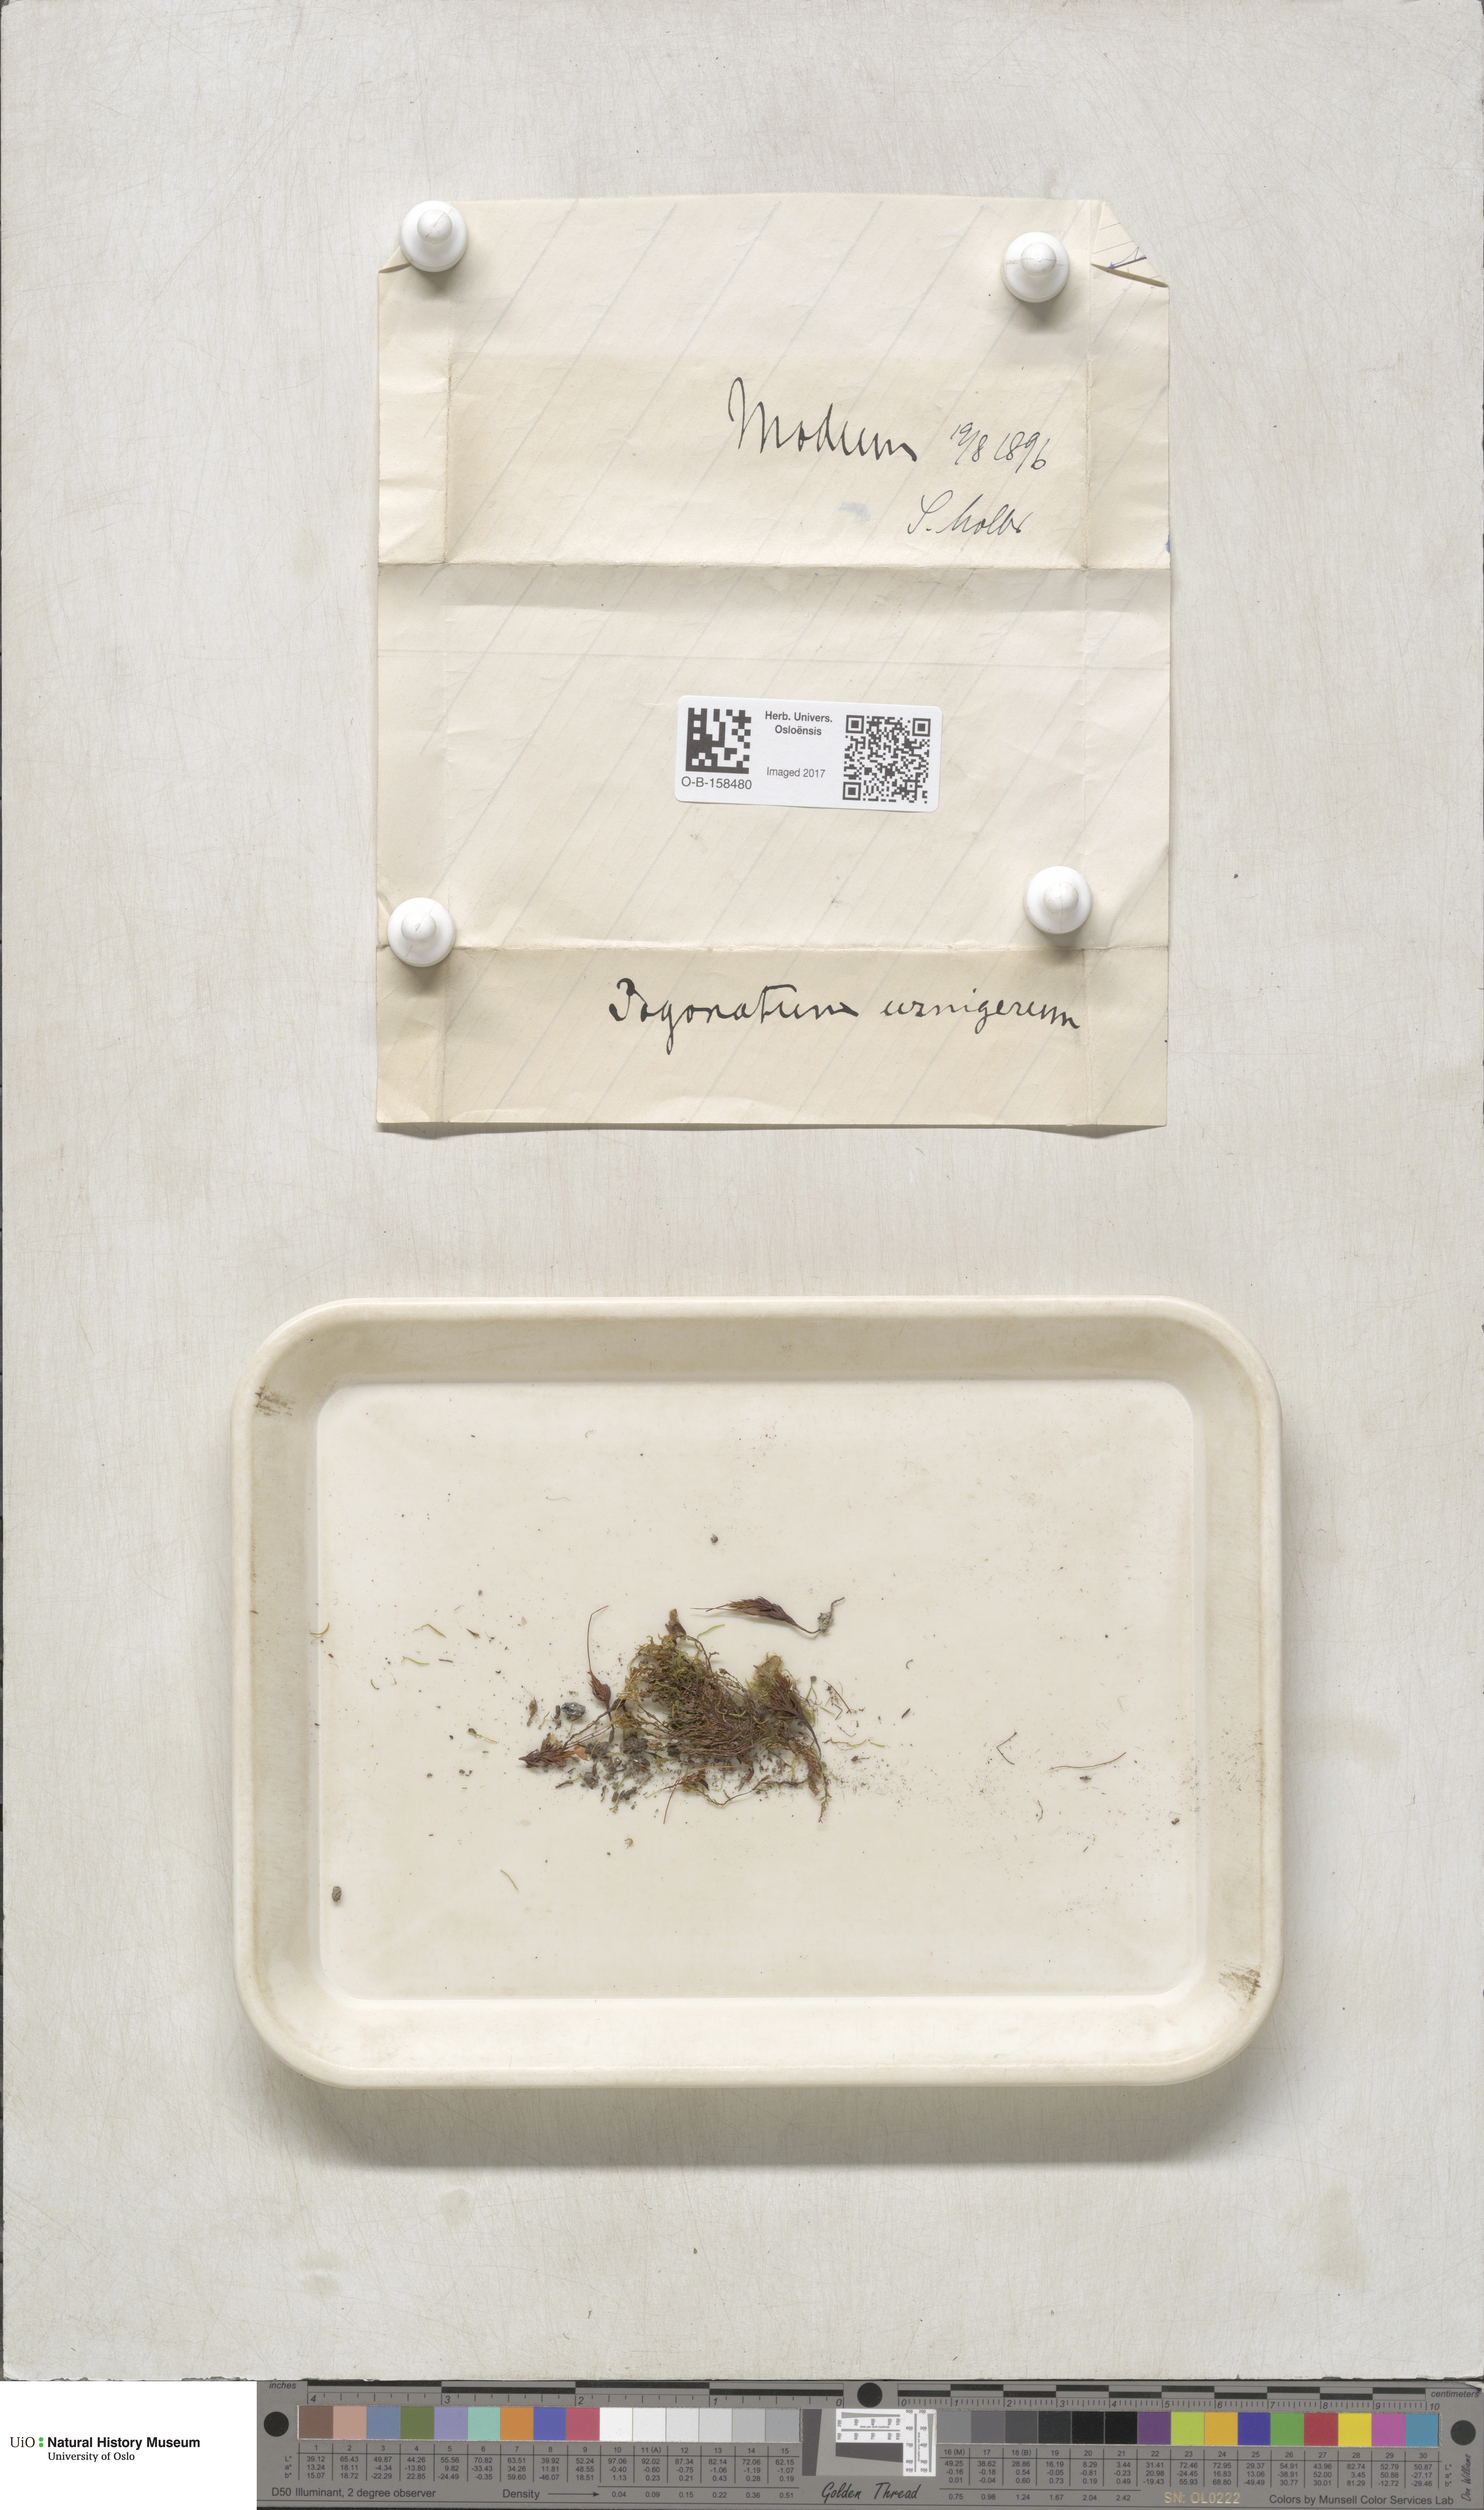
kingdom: Plantae
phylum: Bryophyta
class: Polytrichopsida
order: Polytrichales
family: Polytrichaceae
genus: Pogonatum
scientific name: Pogonatum urnigerum
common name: Urn hair moss
